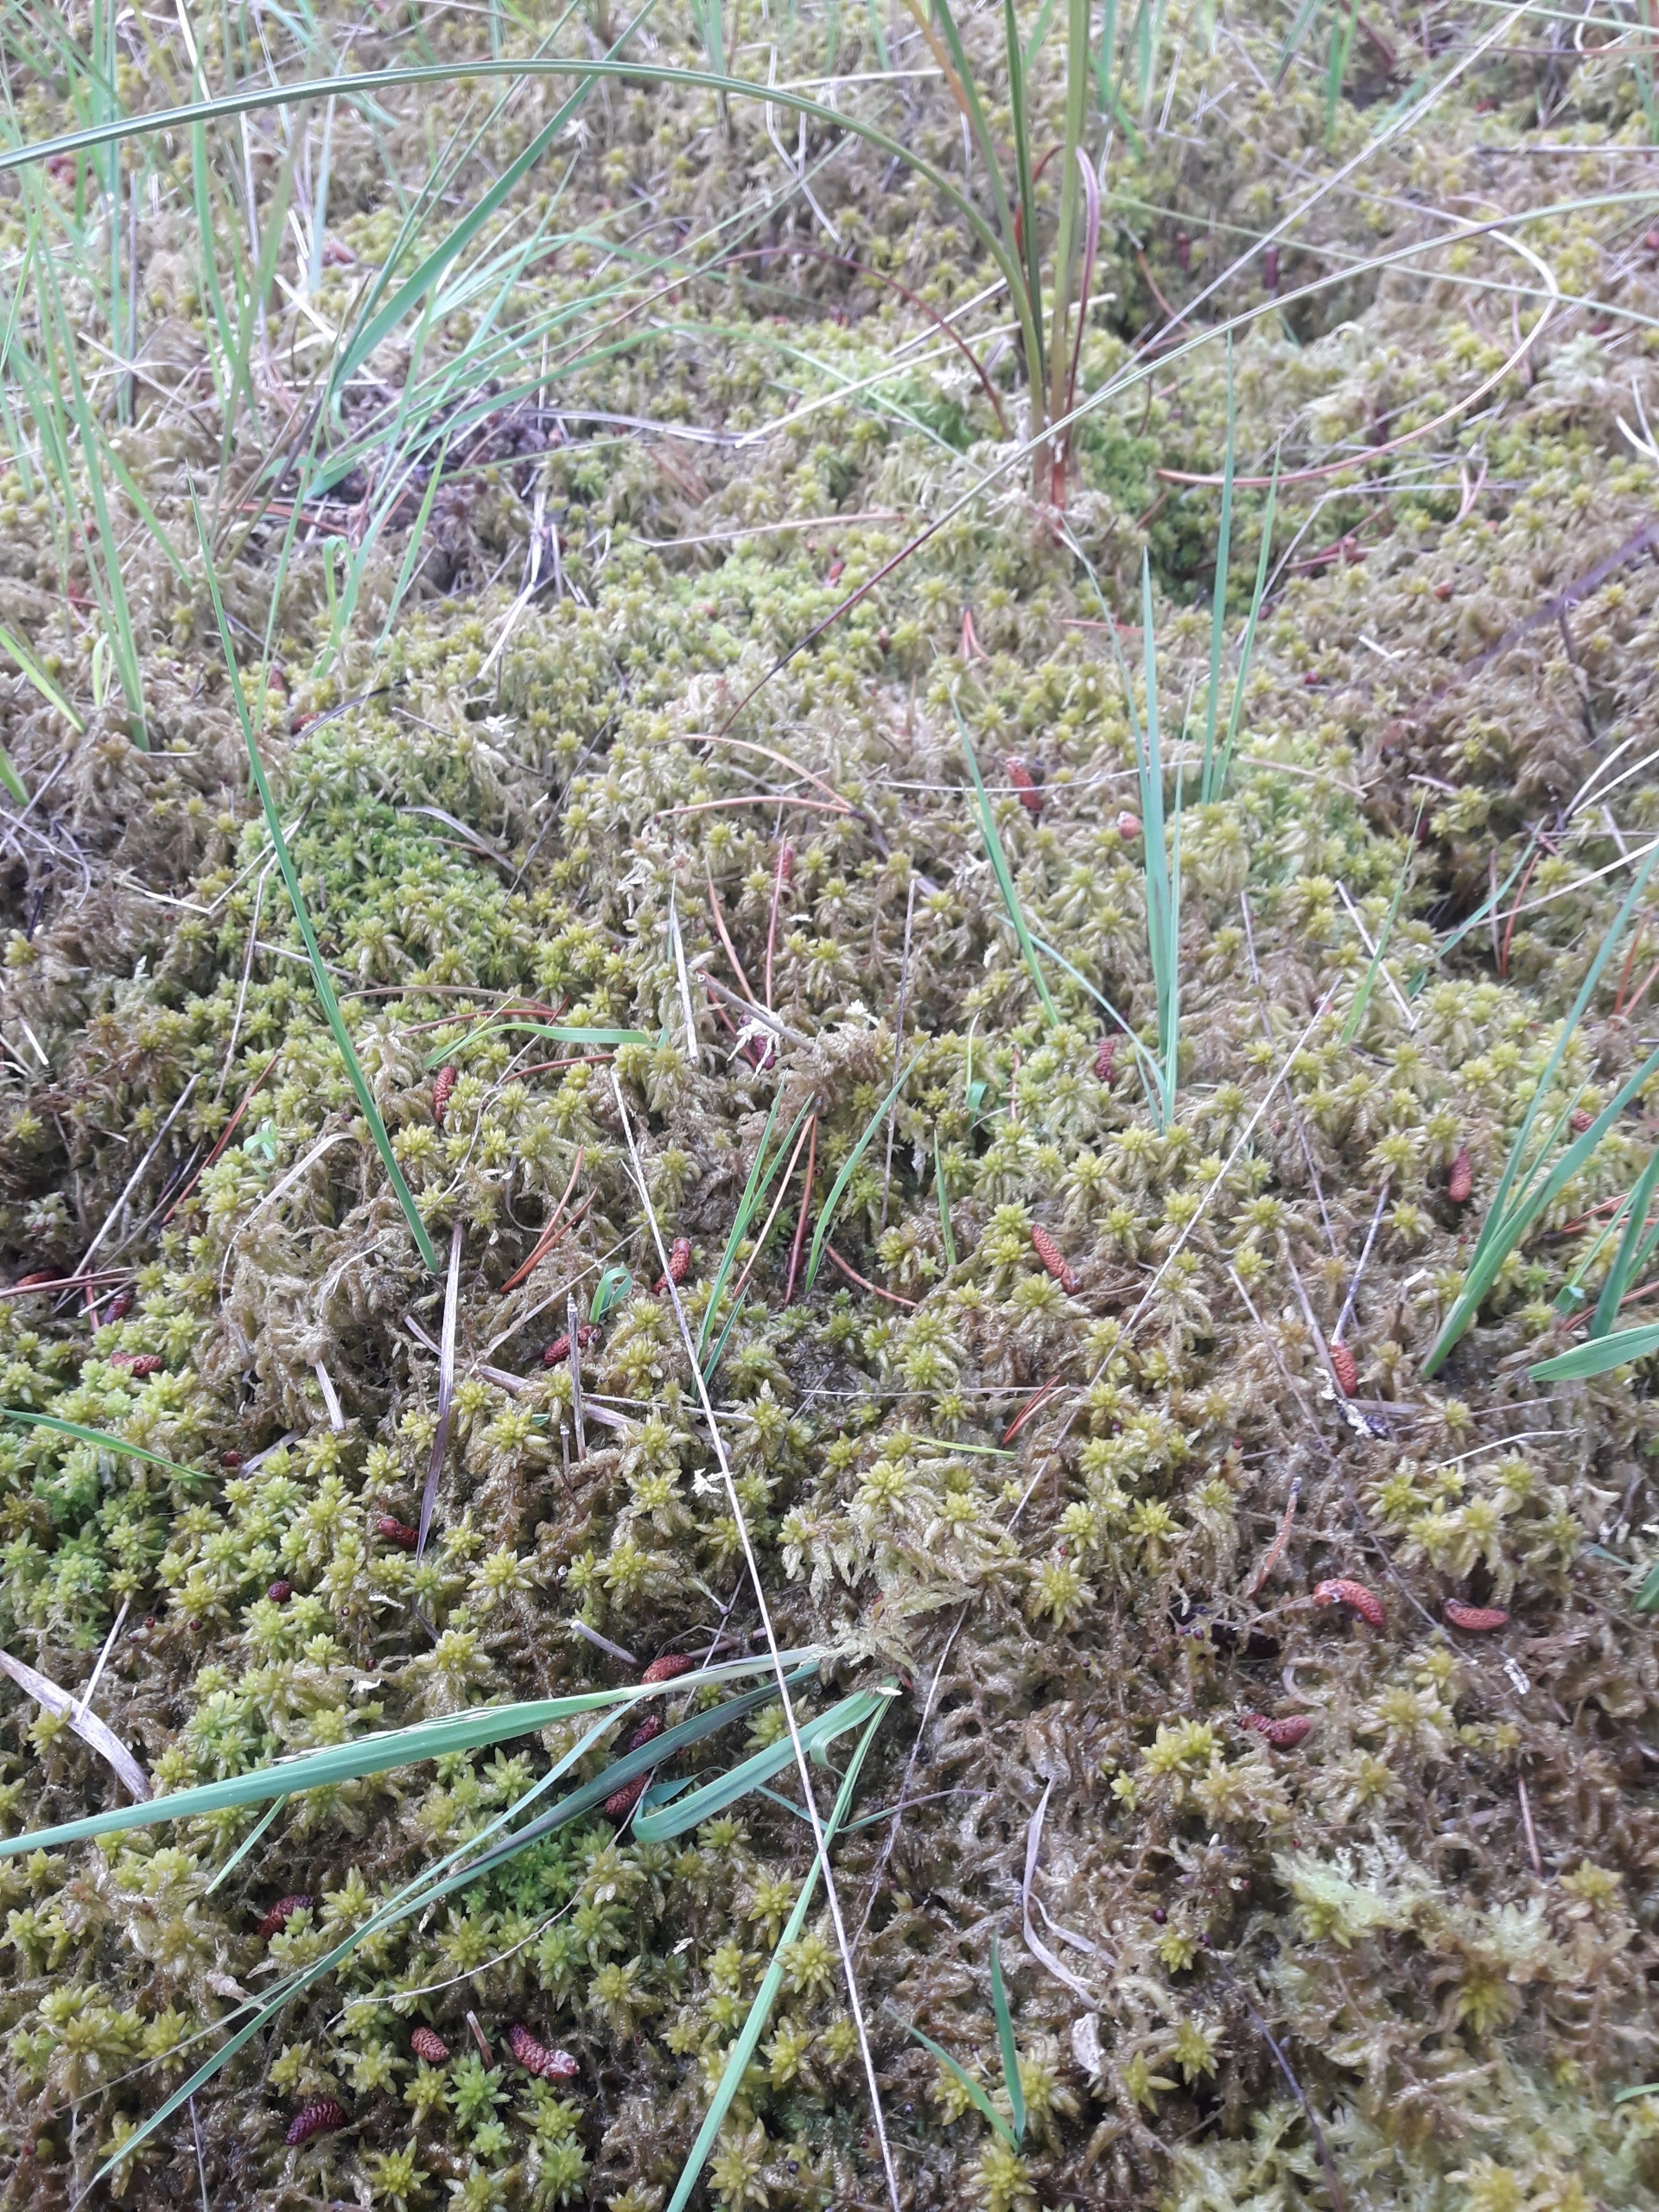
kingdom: Plantae
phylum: Bryophyta
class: Sphagnopsida
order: Sphagnales
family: Sphagnaceae
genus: Sphagnum
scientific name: Sphagnum
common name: Tørvemosslægten
